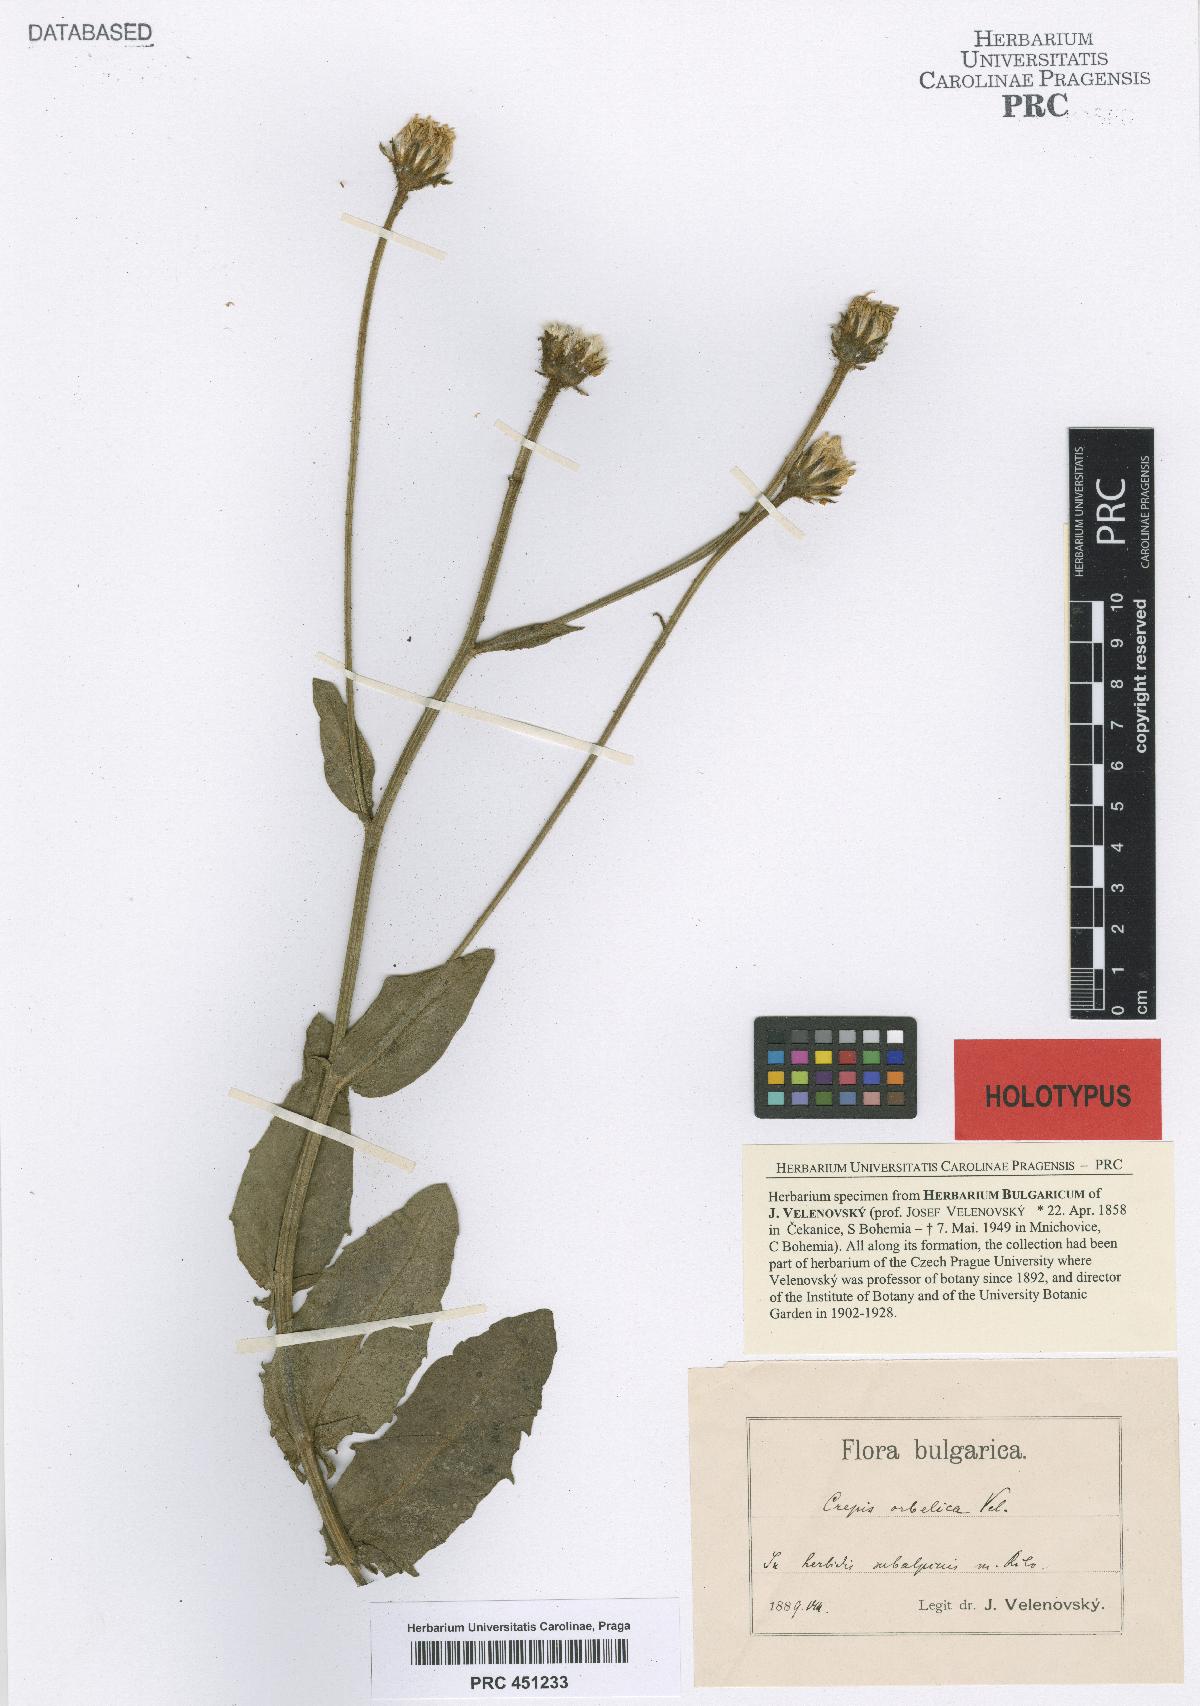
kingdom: Plantae
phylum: Tracheophyta
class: Magnoliopsida
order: Asterales
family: Asteraceae
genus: Lactuca
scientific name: Lactuca plumieri
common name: Hairless blue-sow-thistle
